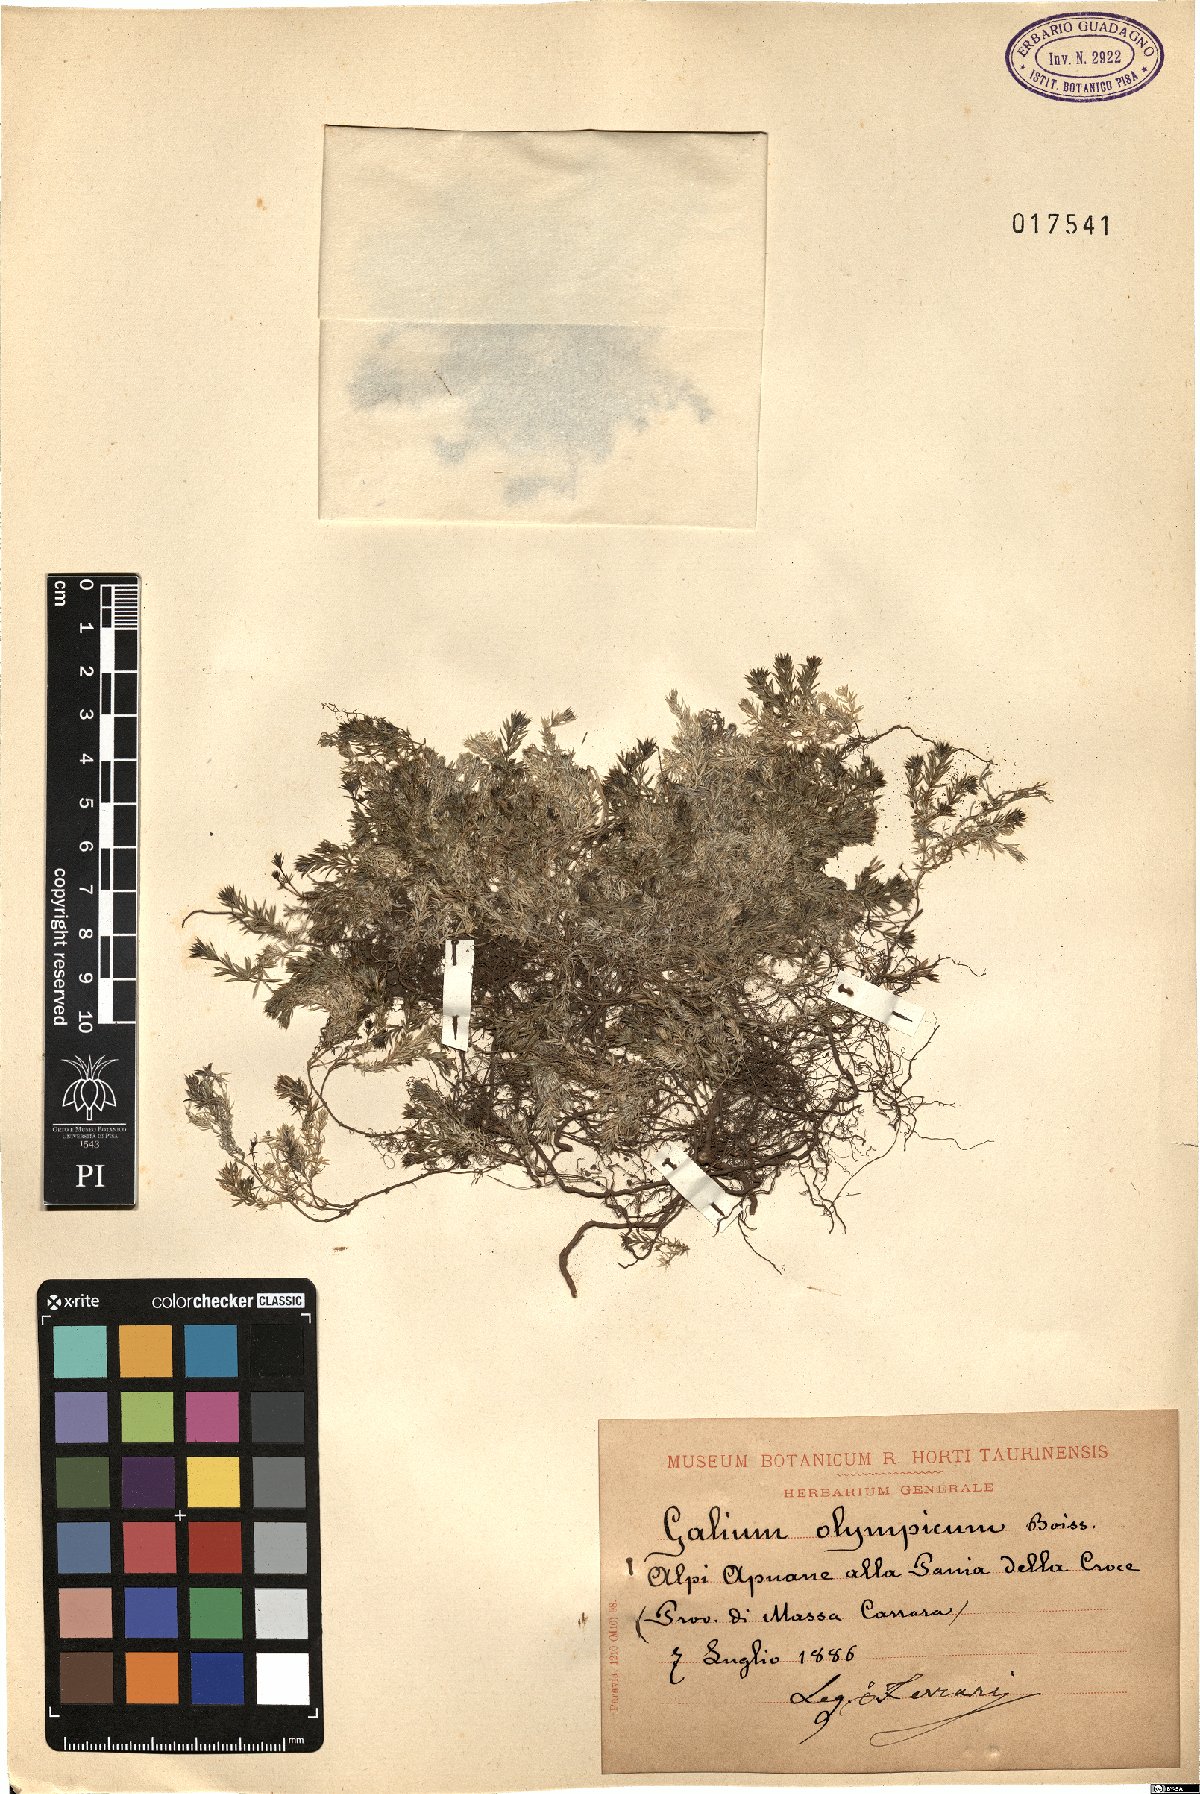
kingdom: Plantae
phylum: Tracheophyta
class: Magnoliopsida
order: Gentianales
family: Rubiaceae
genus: Galium
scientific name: Galium olympicum
